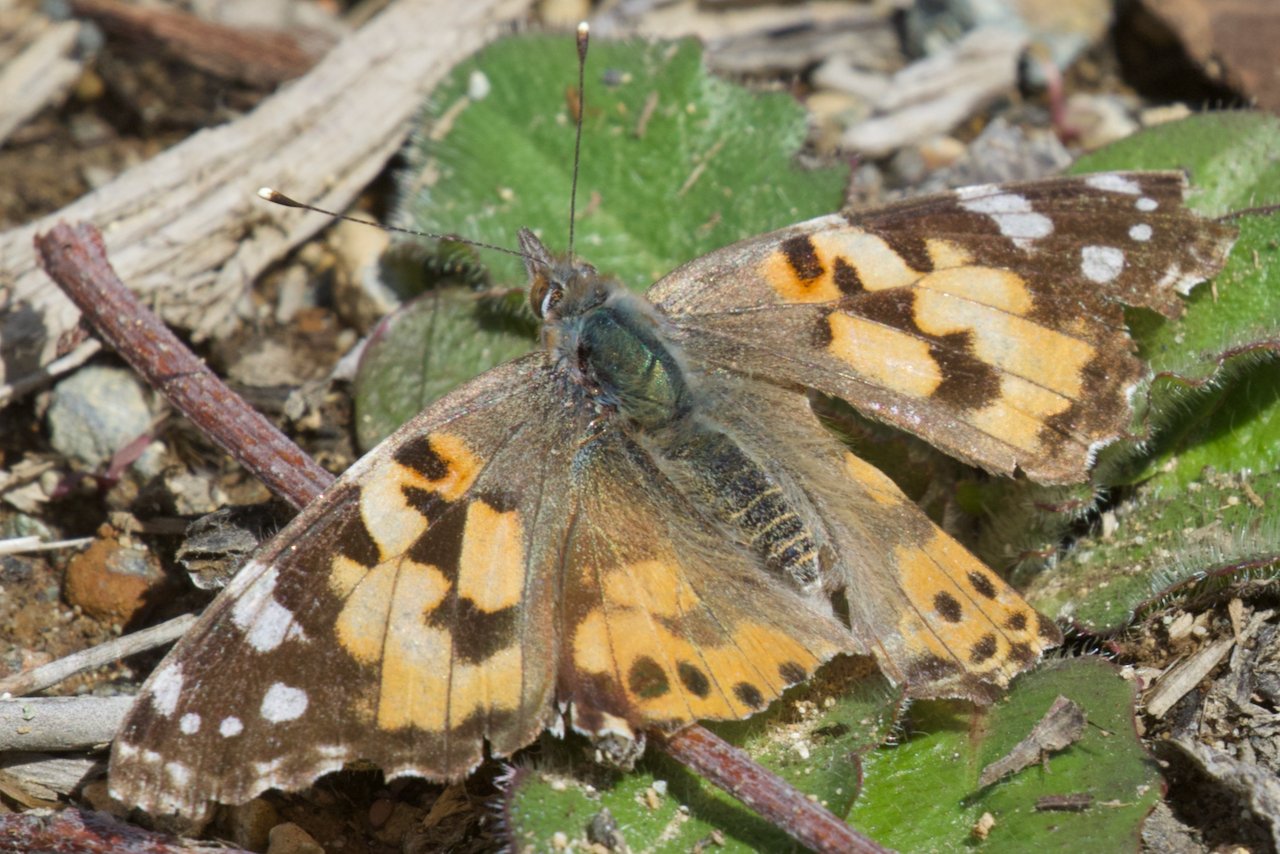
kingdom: Animalia
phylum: Arthropoda
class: Insecta
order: Lepidoptera
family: Nymphalidae
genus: Vanessa
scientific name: Vanessa cardui
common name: Painted Lady
